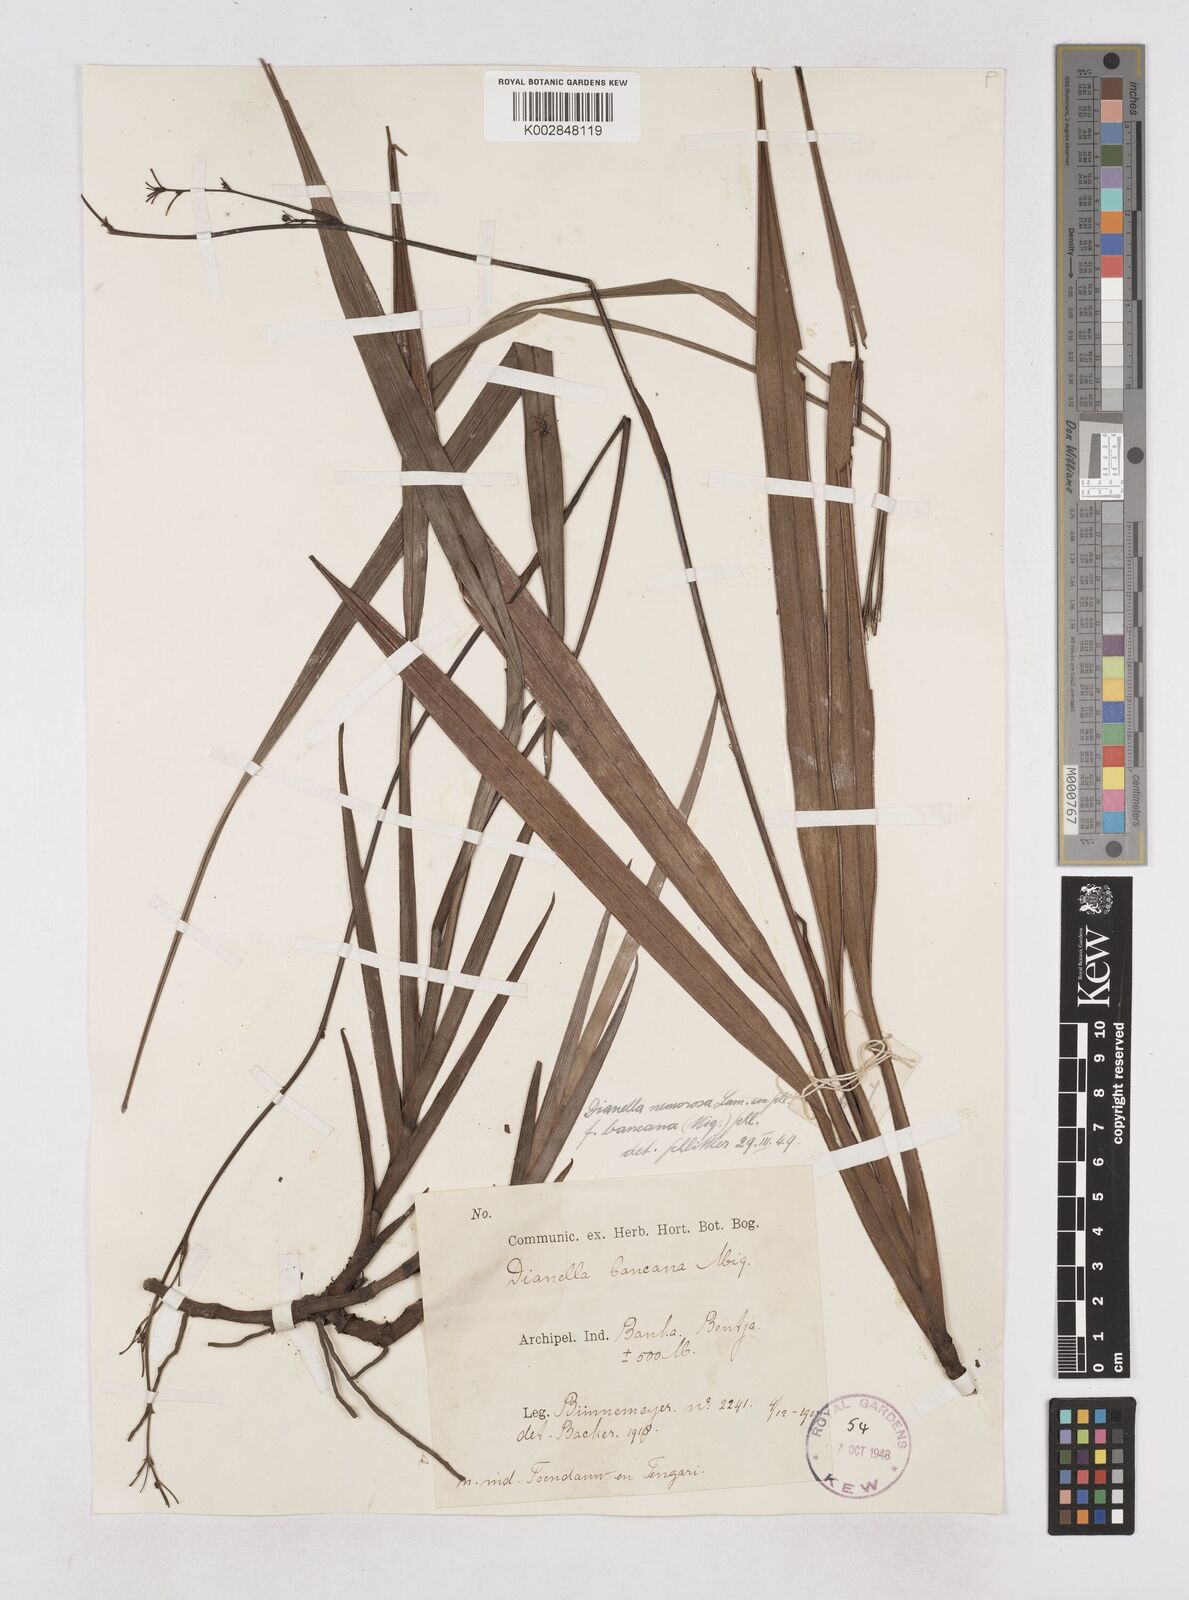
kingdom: Plantae
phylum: Tracheophyta
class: Liliopsida
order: Asparagales
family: Asphodelaceae
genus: Dianella
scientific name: Dianella ensifolia
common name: New zealand lilyplant
